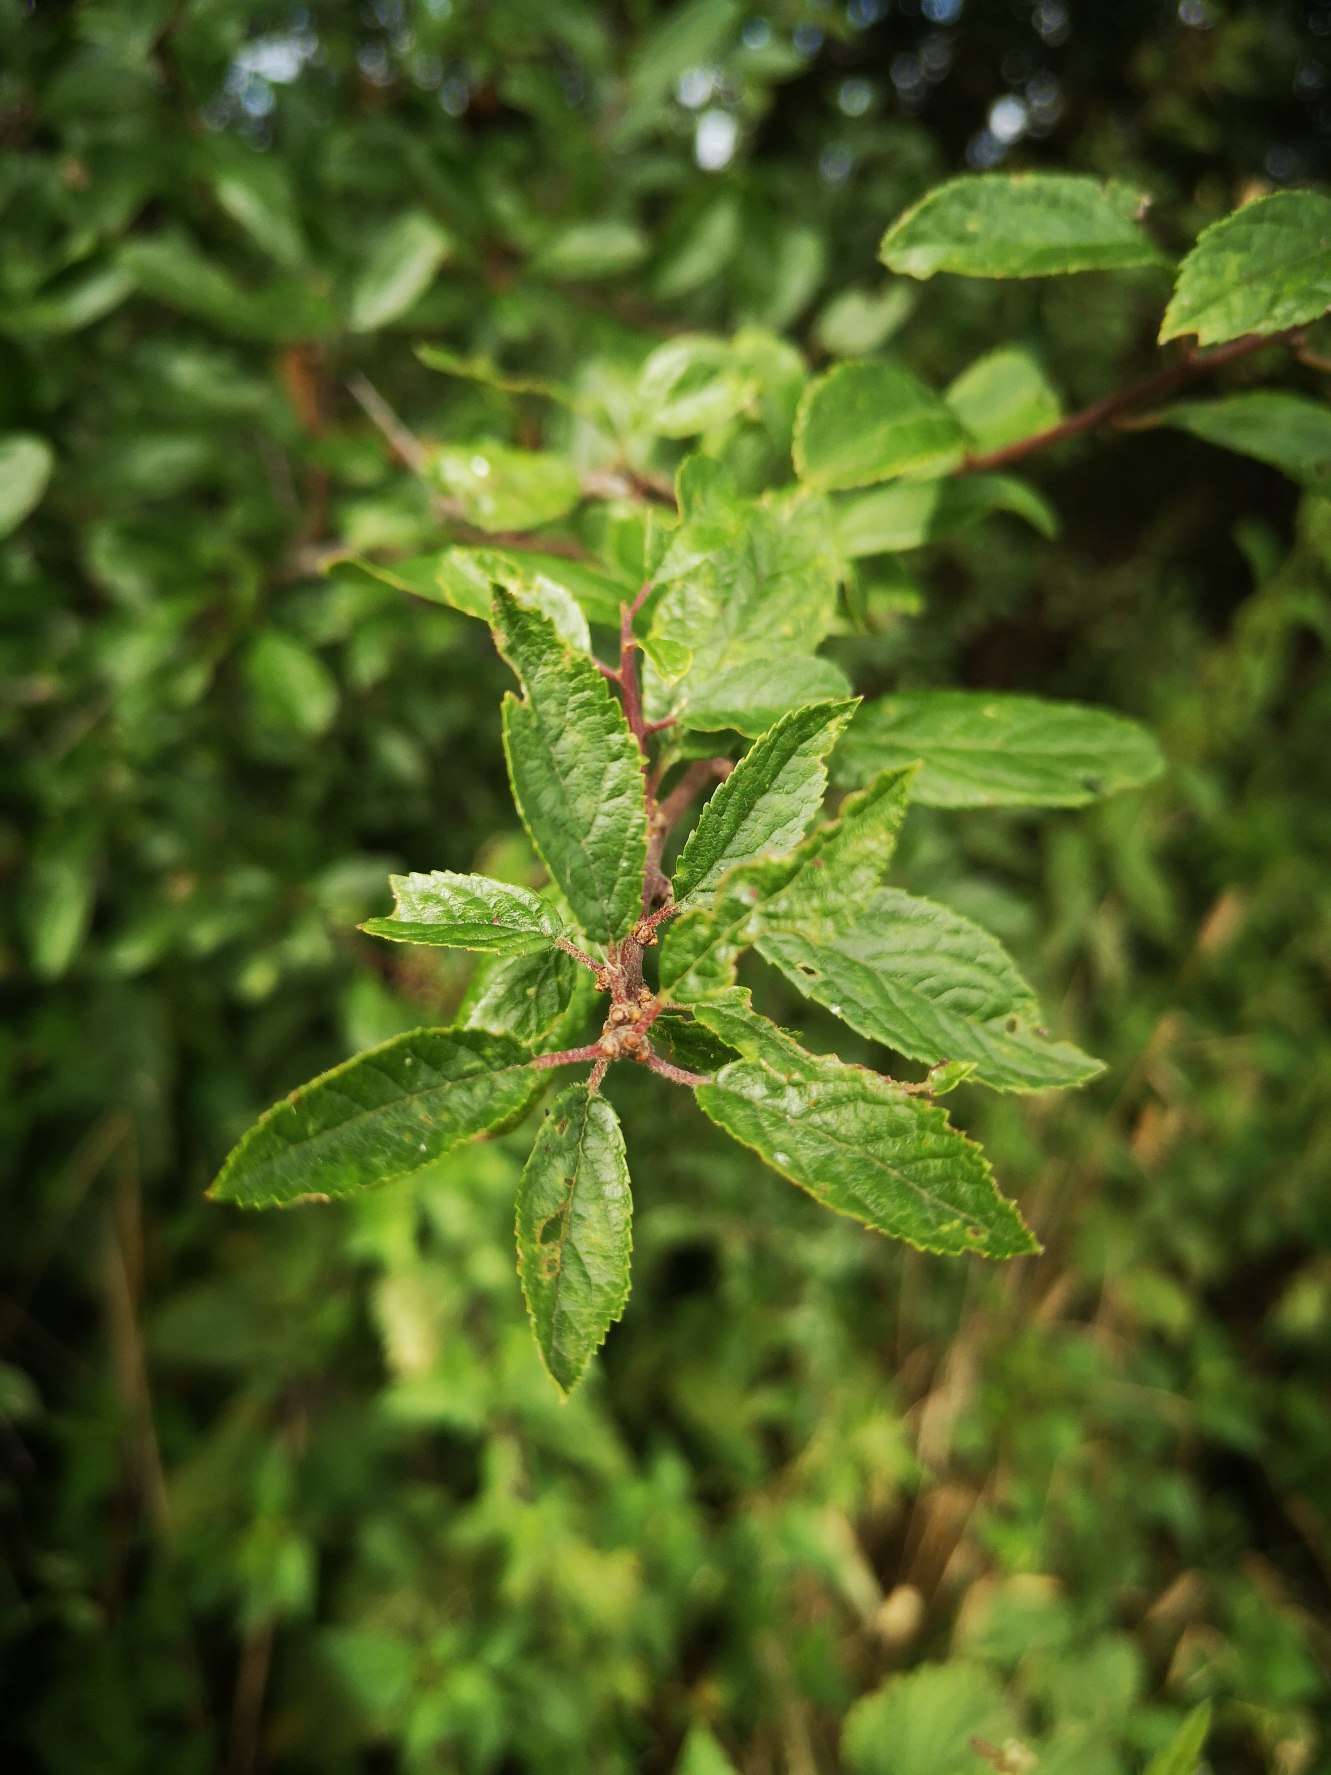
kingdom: Plantae
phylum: Tracheophyta
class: Magnoliopsida
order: Rosales
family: Rosaceae
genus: Prunus
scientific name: Prunus spinosa
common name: Slåen
